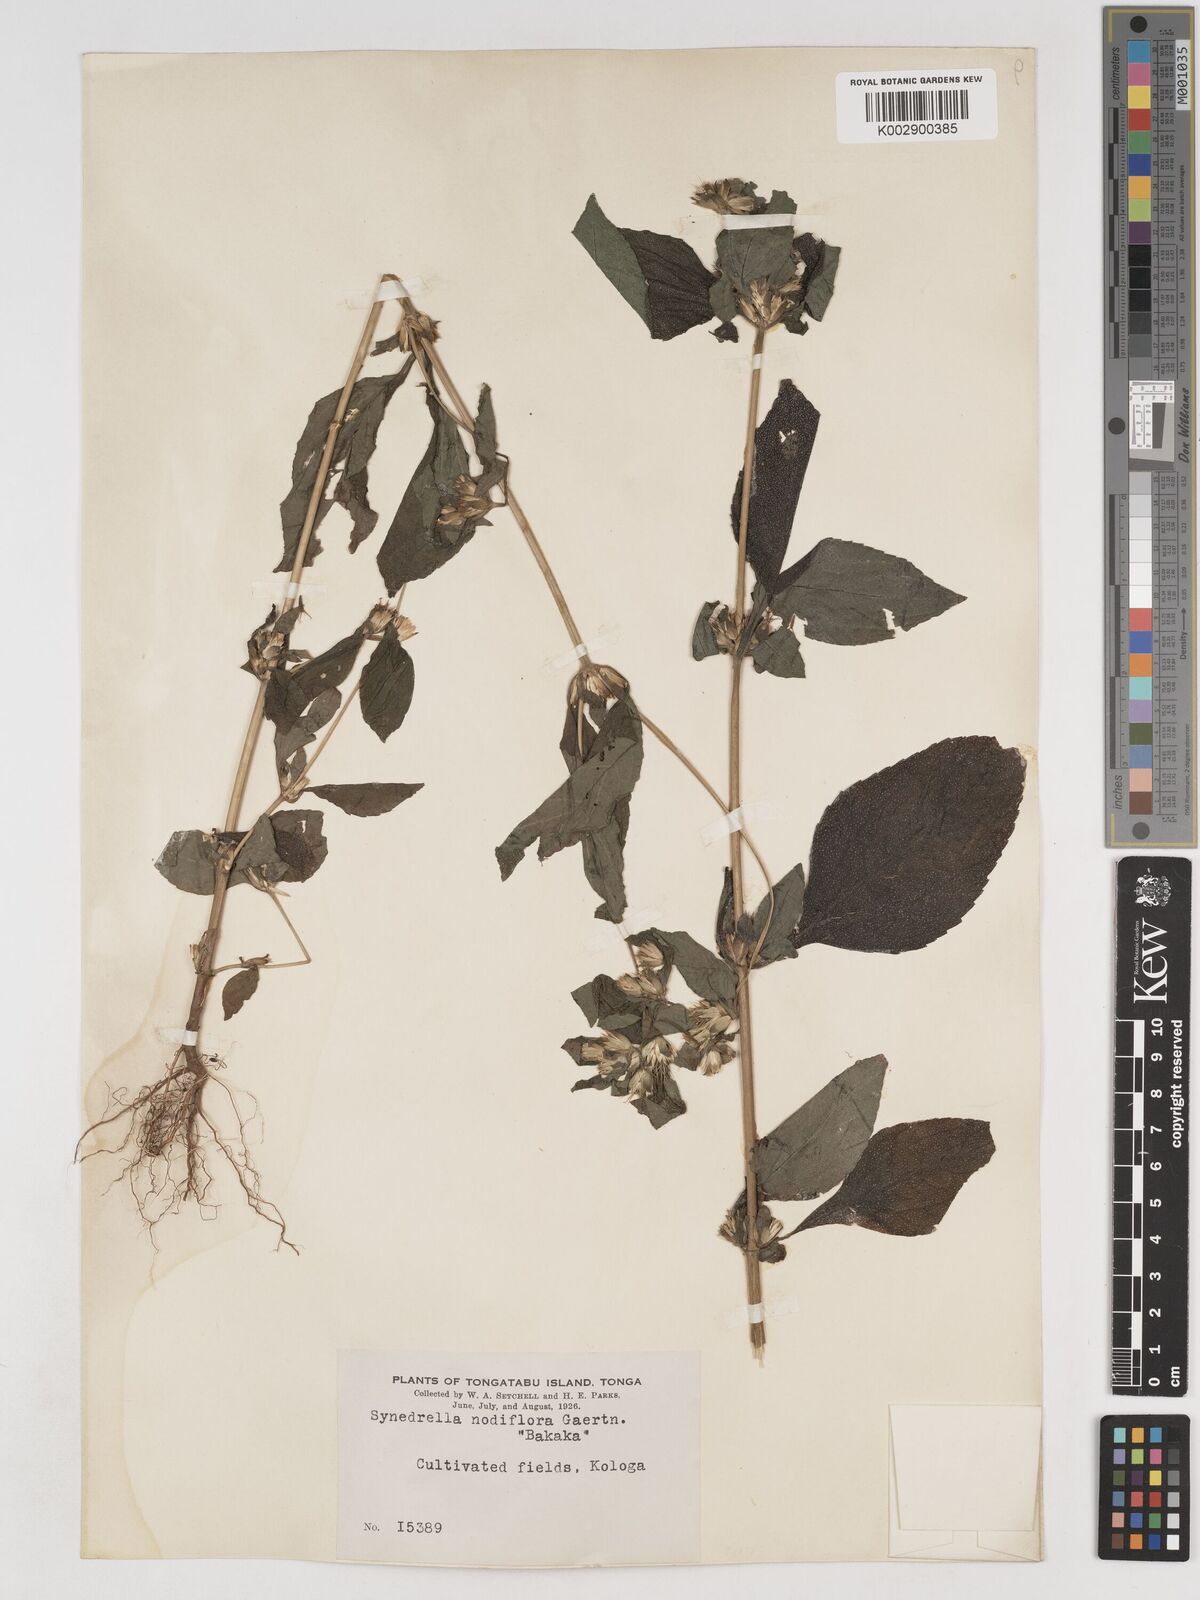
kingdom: Plantae
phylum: Tracheophyta
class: Magnoliopsida
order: Asterales
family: Asteraceae
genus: Synedrella
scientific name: Synedrella nodiflora
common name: Nodeweed
